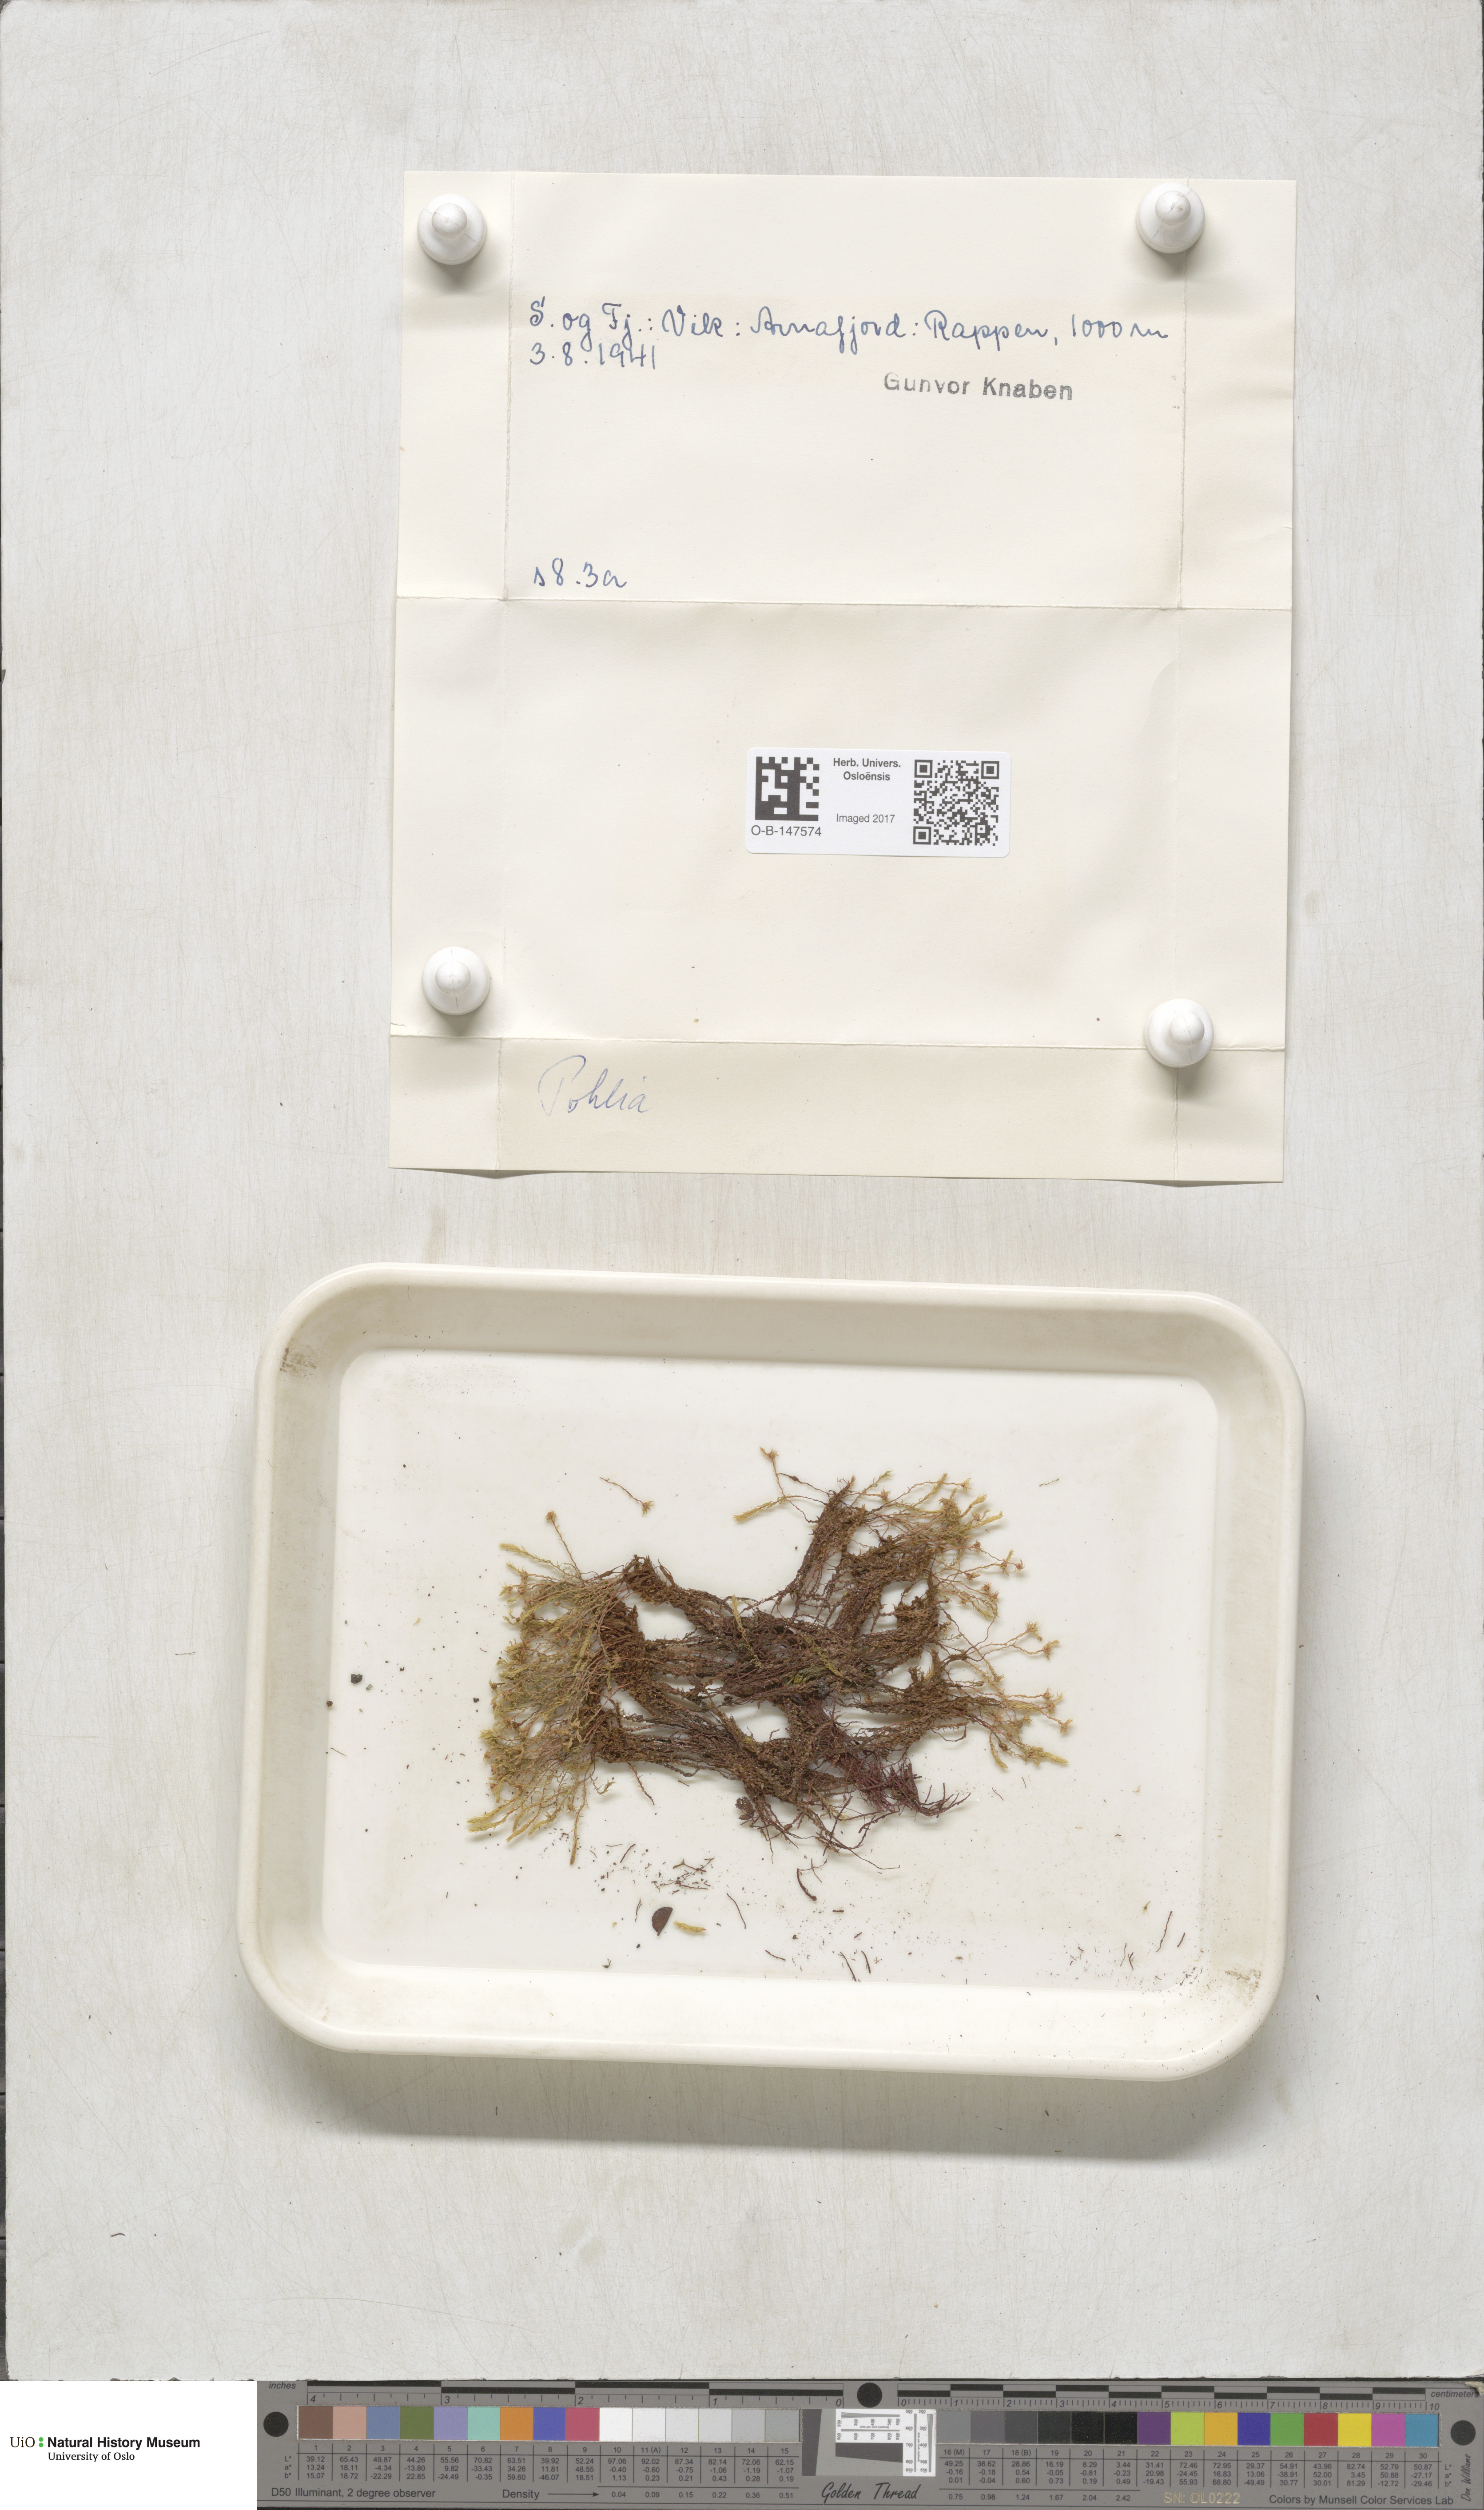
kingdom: Plantae
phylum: Bryophyta
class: Bryopsida
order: Bryales
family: Mniaceae
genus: Pohlia
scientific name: Pohlia
